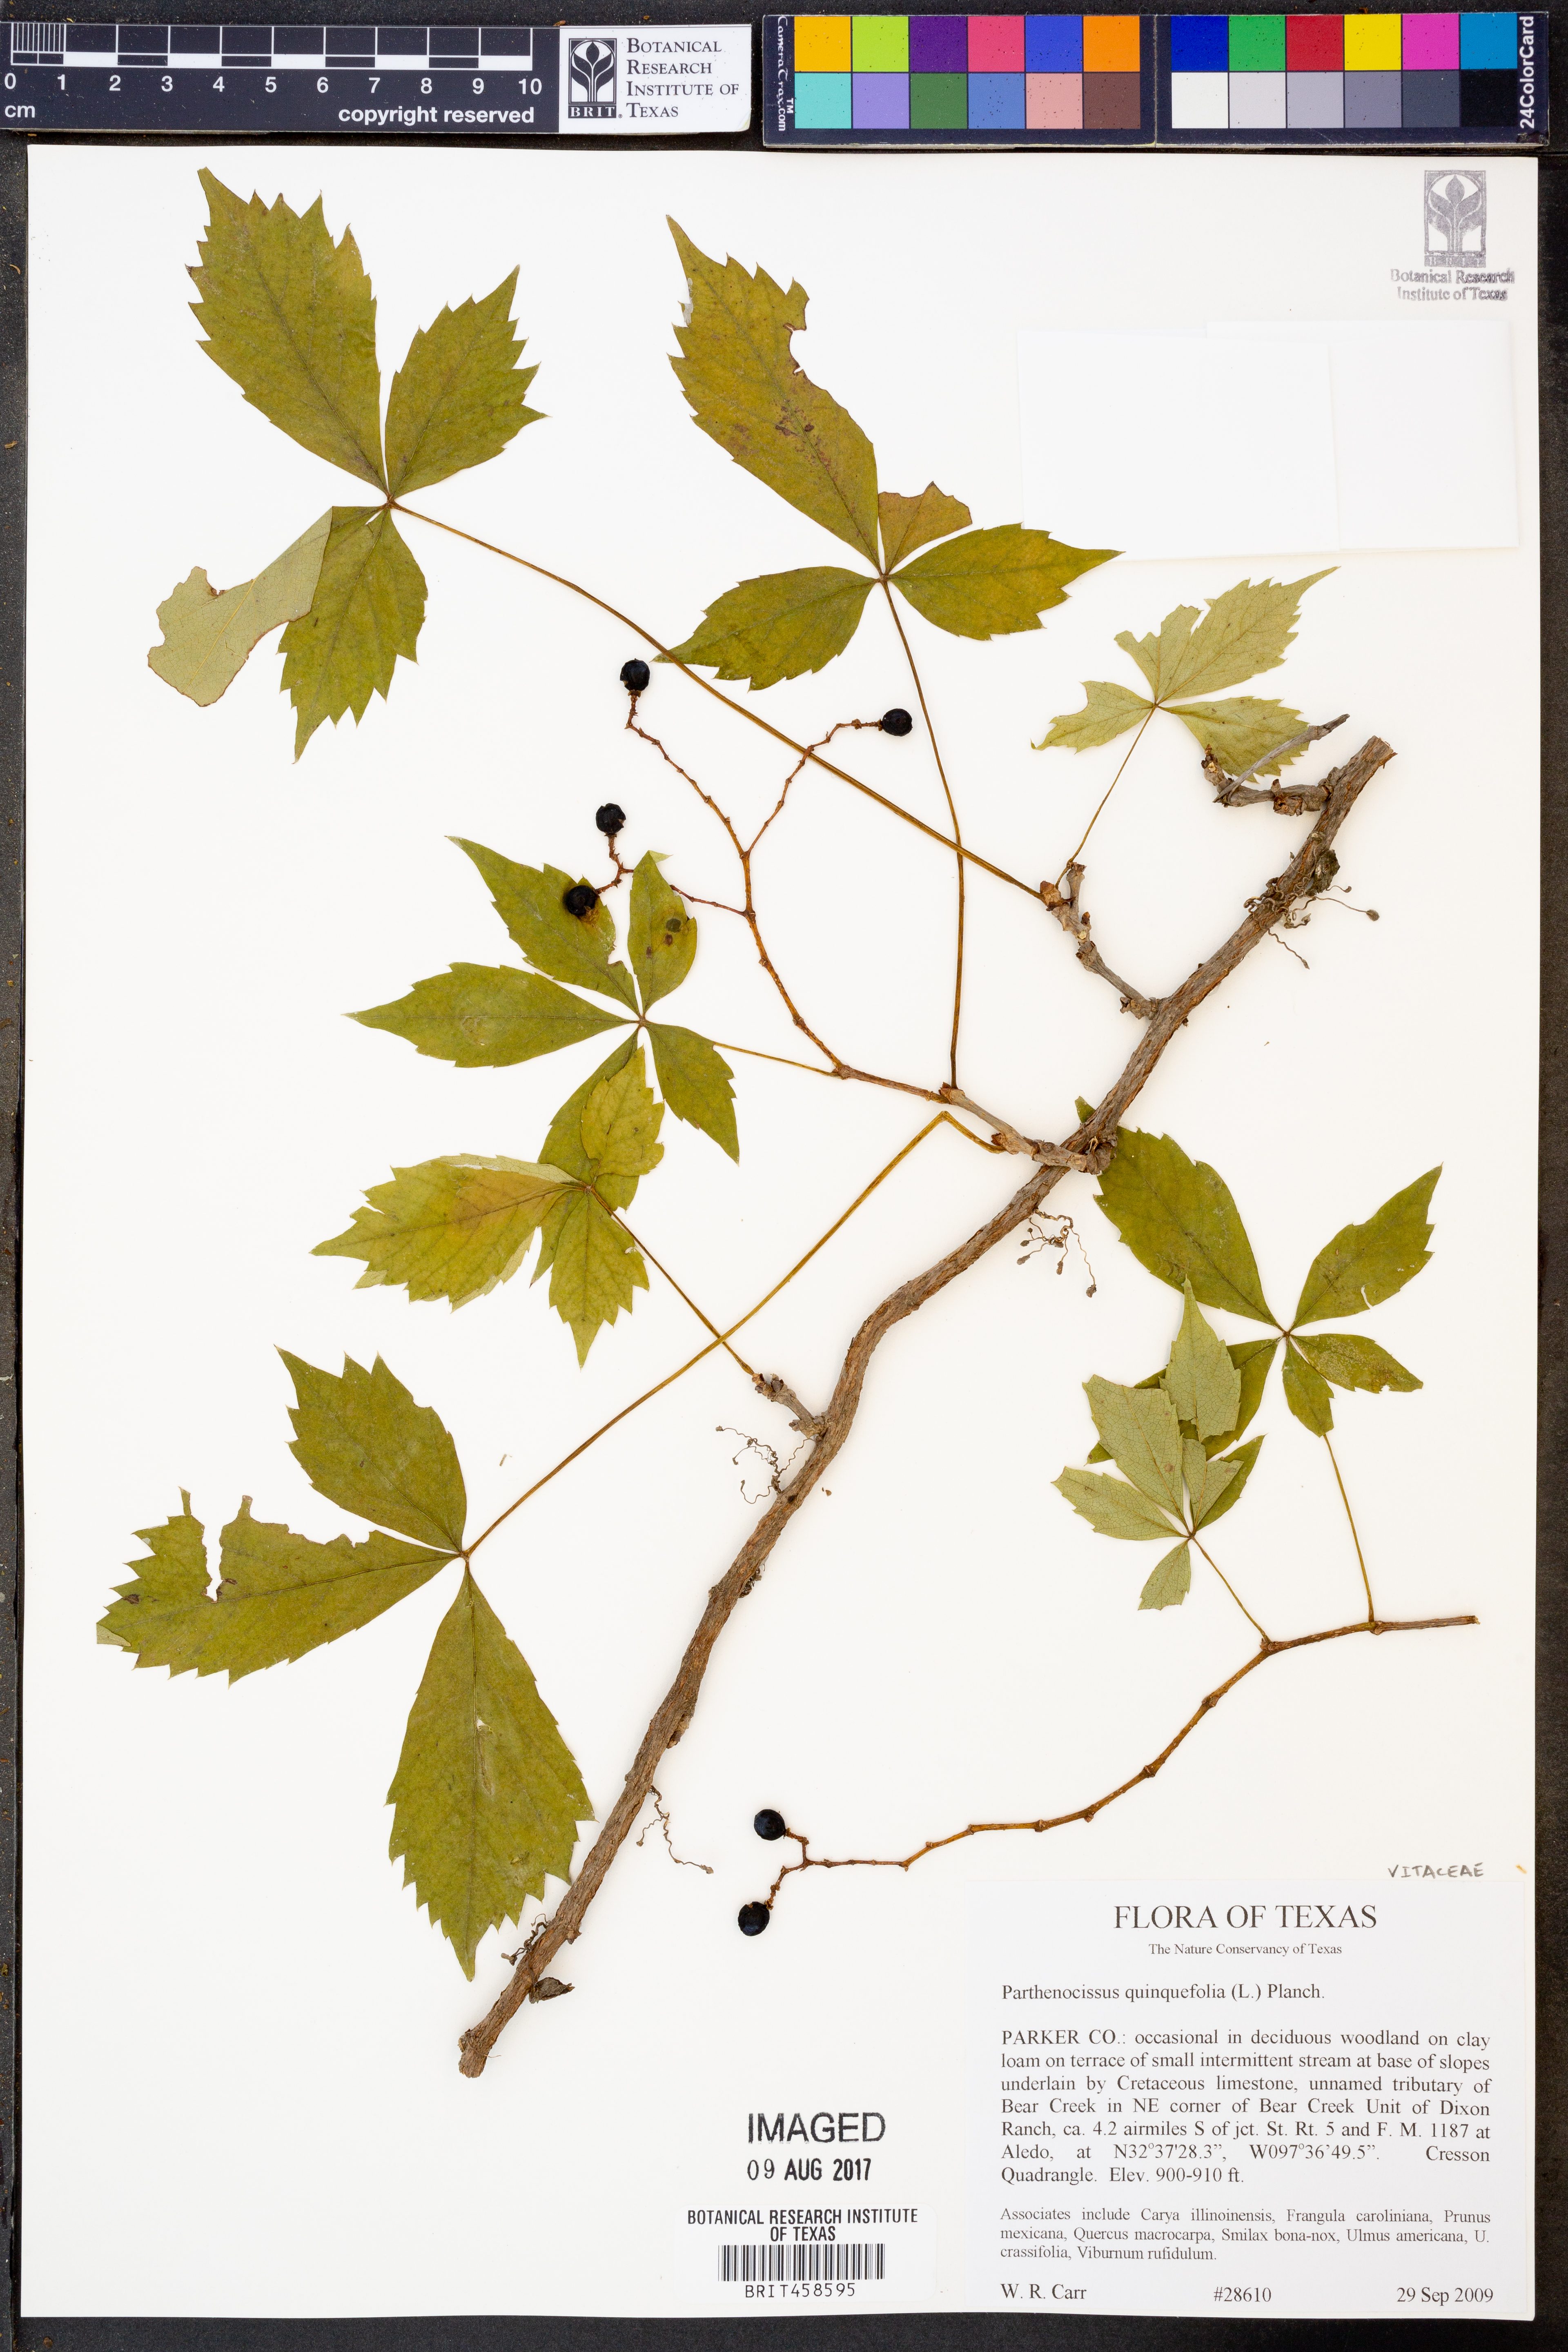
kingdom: Plantae
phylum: Tracheophyta
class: Magnoliopsida
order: Vitales
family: Vitaceae
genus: Parthenocissus
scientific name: Parthenocissus quinquefolia
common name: Virginia-creeper
